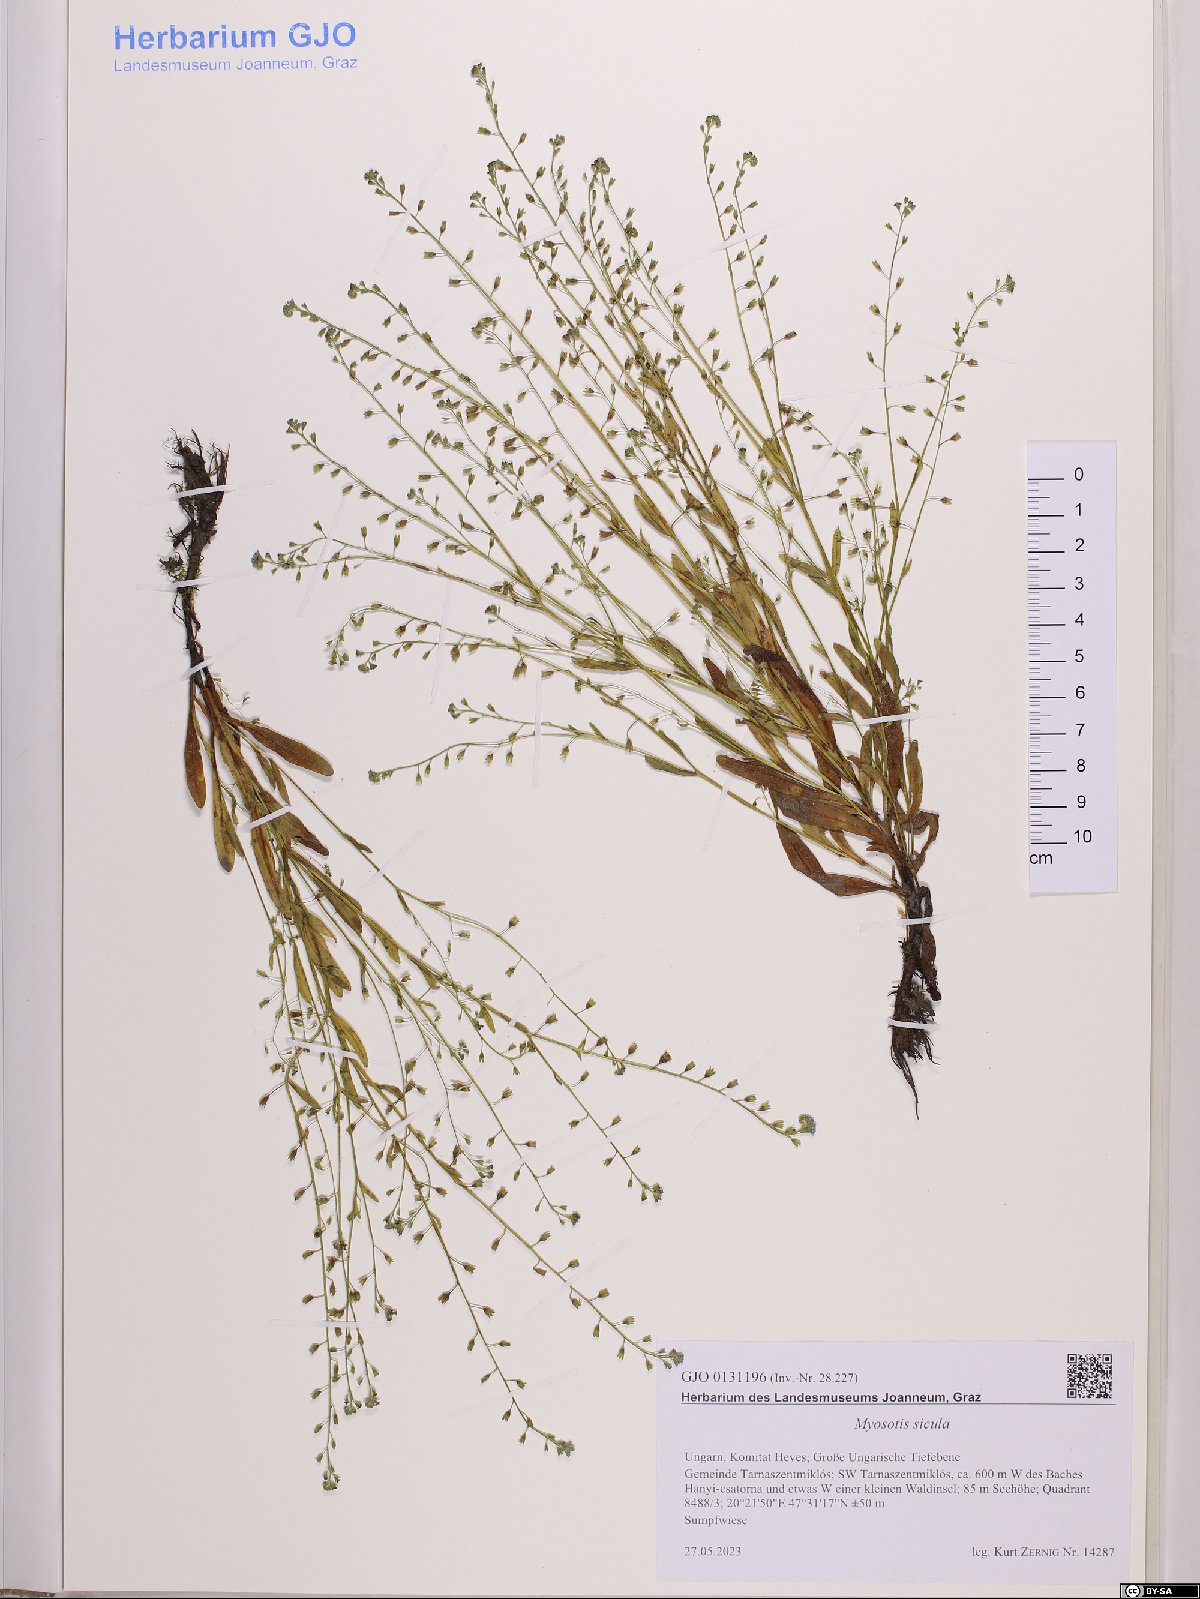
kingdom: Plantae
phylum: Tracheophyta
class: Magnoliopsida
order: Boraginales
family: Boraginaceae
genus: Myosotis
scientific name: Myosotis sicula
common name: Jersey forget-me-not
